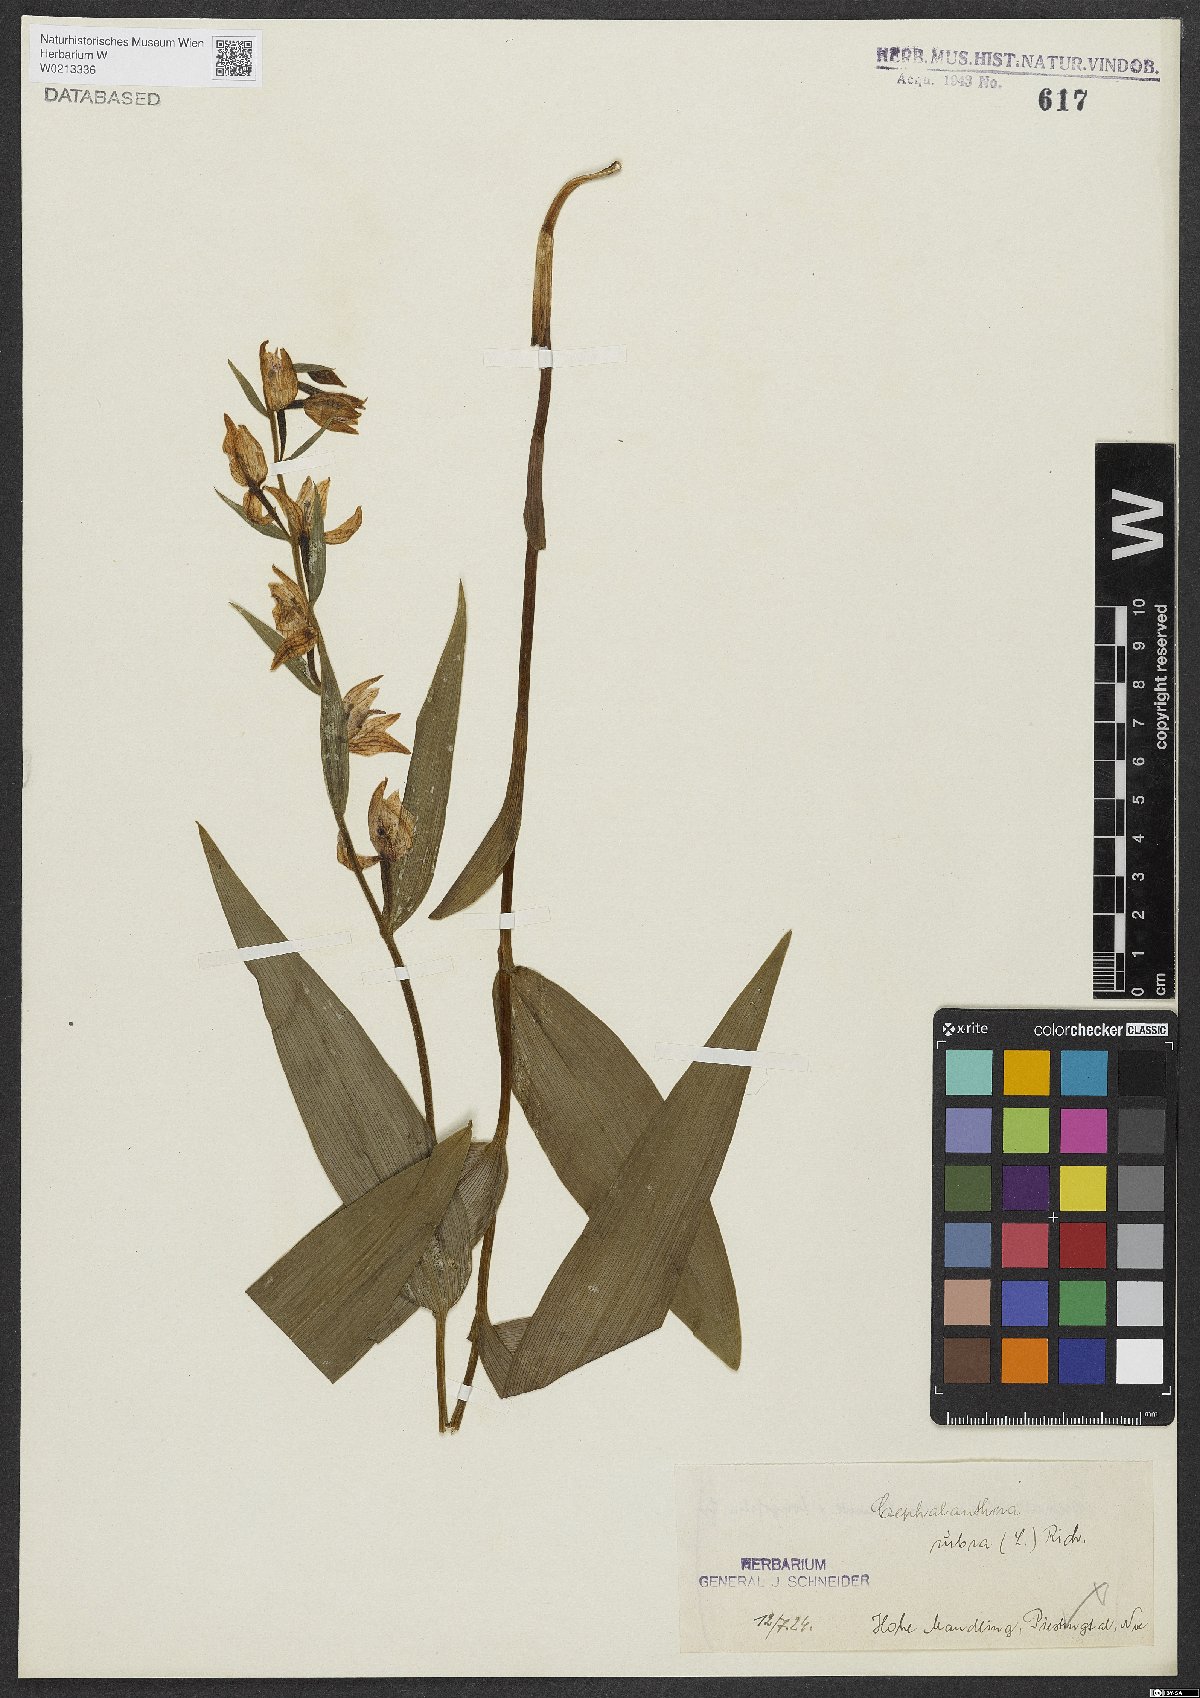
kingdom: Plantae
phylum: Tracheophyta
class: Liliopsida
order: Asparagales
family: Orchidaceae
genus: Cephalanthera
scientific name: Cephalanthera rubra
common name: Red helleborine
